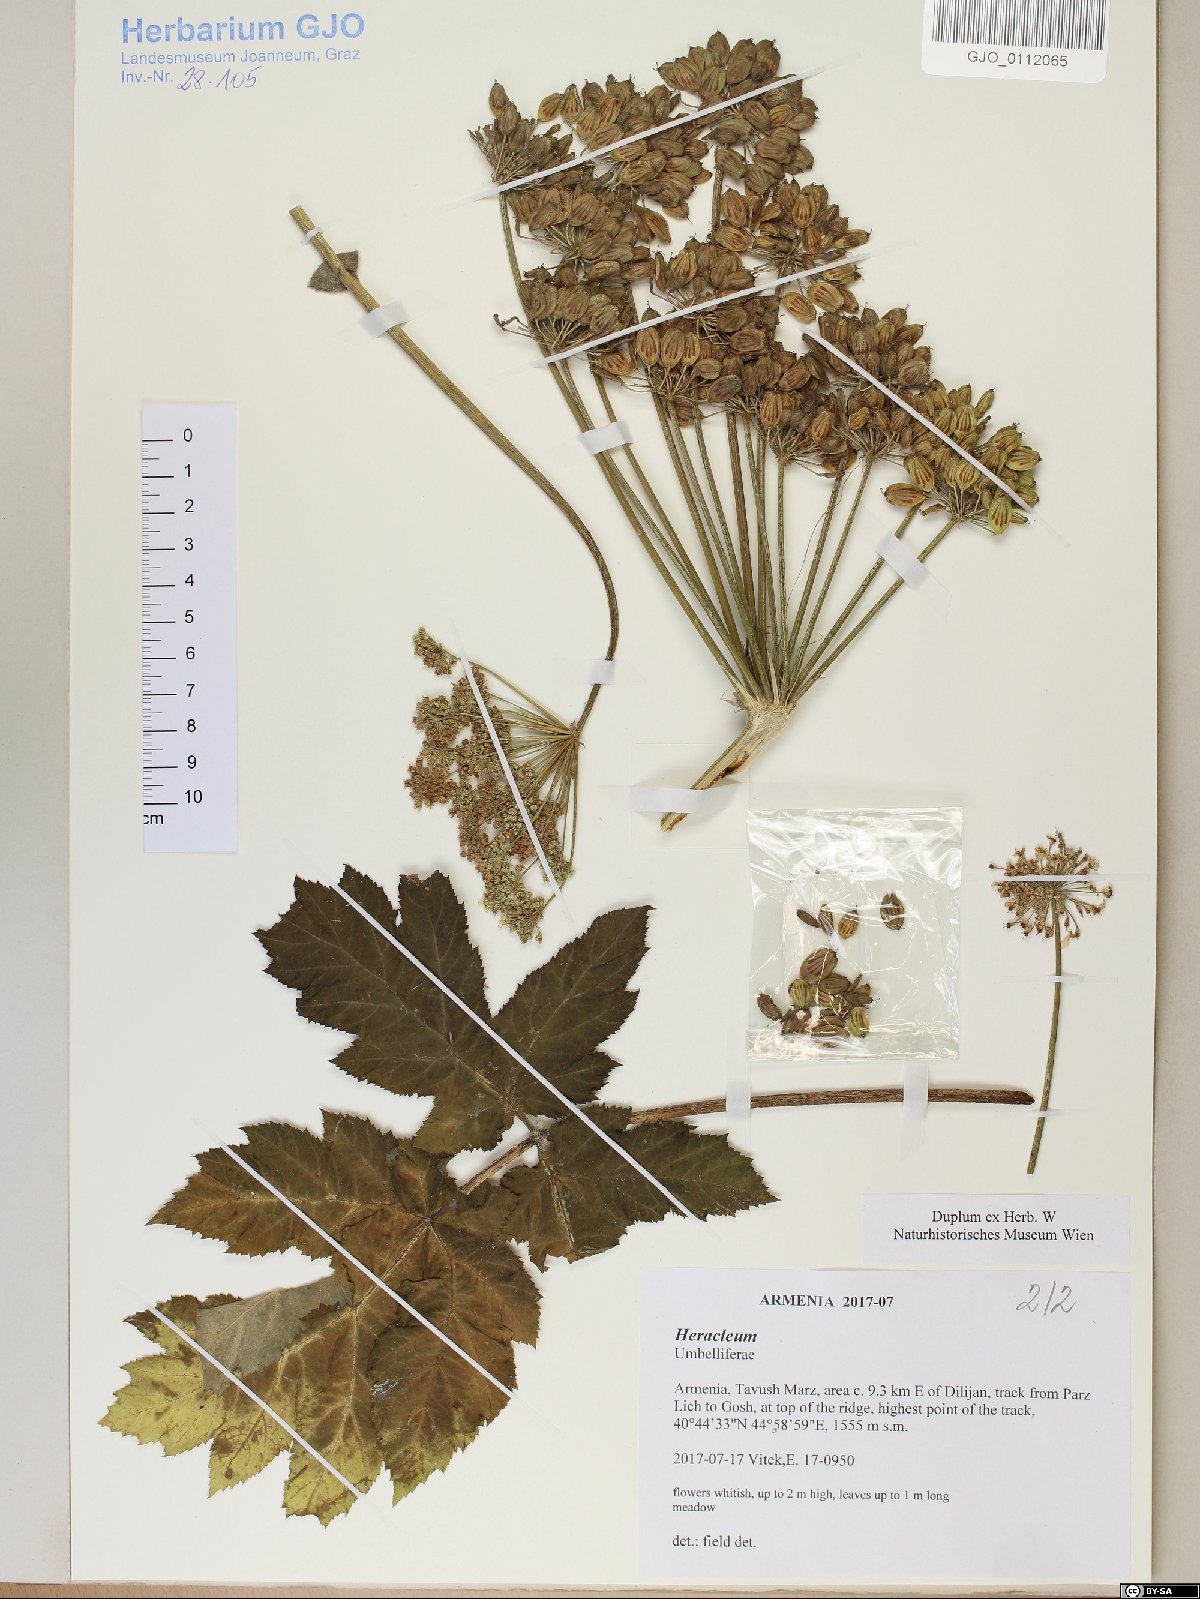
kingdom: Plantae
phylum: Tracheophyta
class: Magnoliopsida
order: Apiales
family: Apiaceae
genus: Heracleum
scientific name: Heracleum
